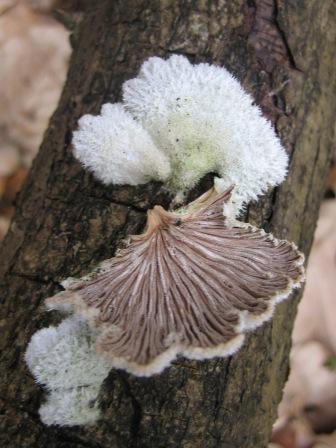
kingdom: Fungi
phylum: Basidiomycota
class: Agaricomycetes
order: Agaricales
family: Schizophyllaceae
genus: Schizophyllum
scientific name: Schizophyllum commune
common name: kløvblad
